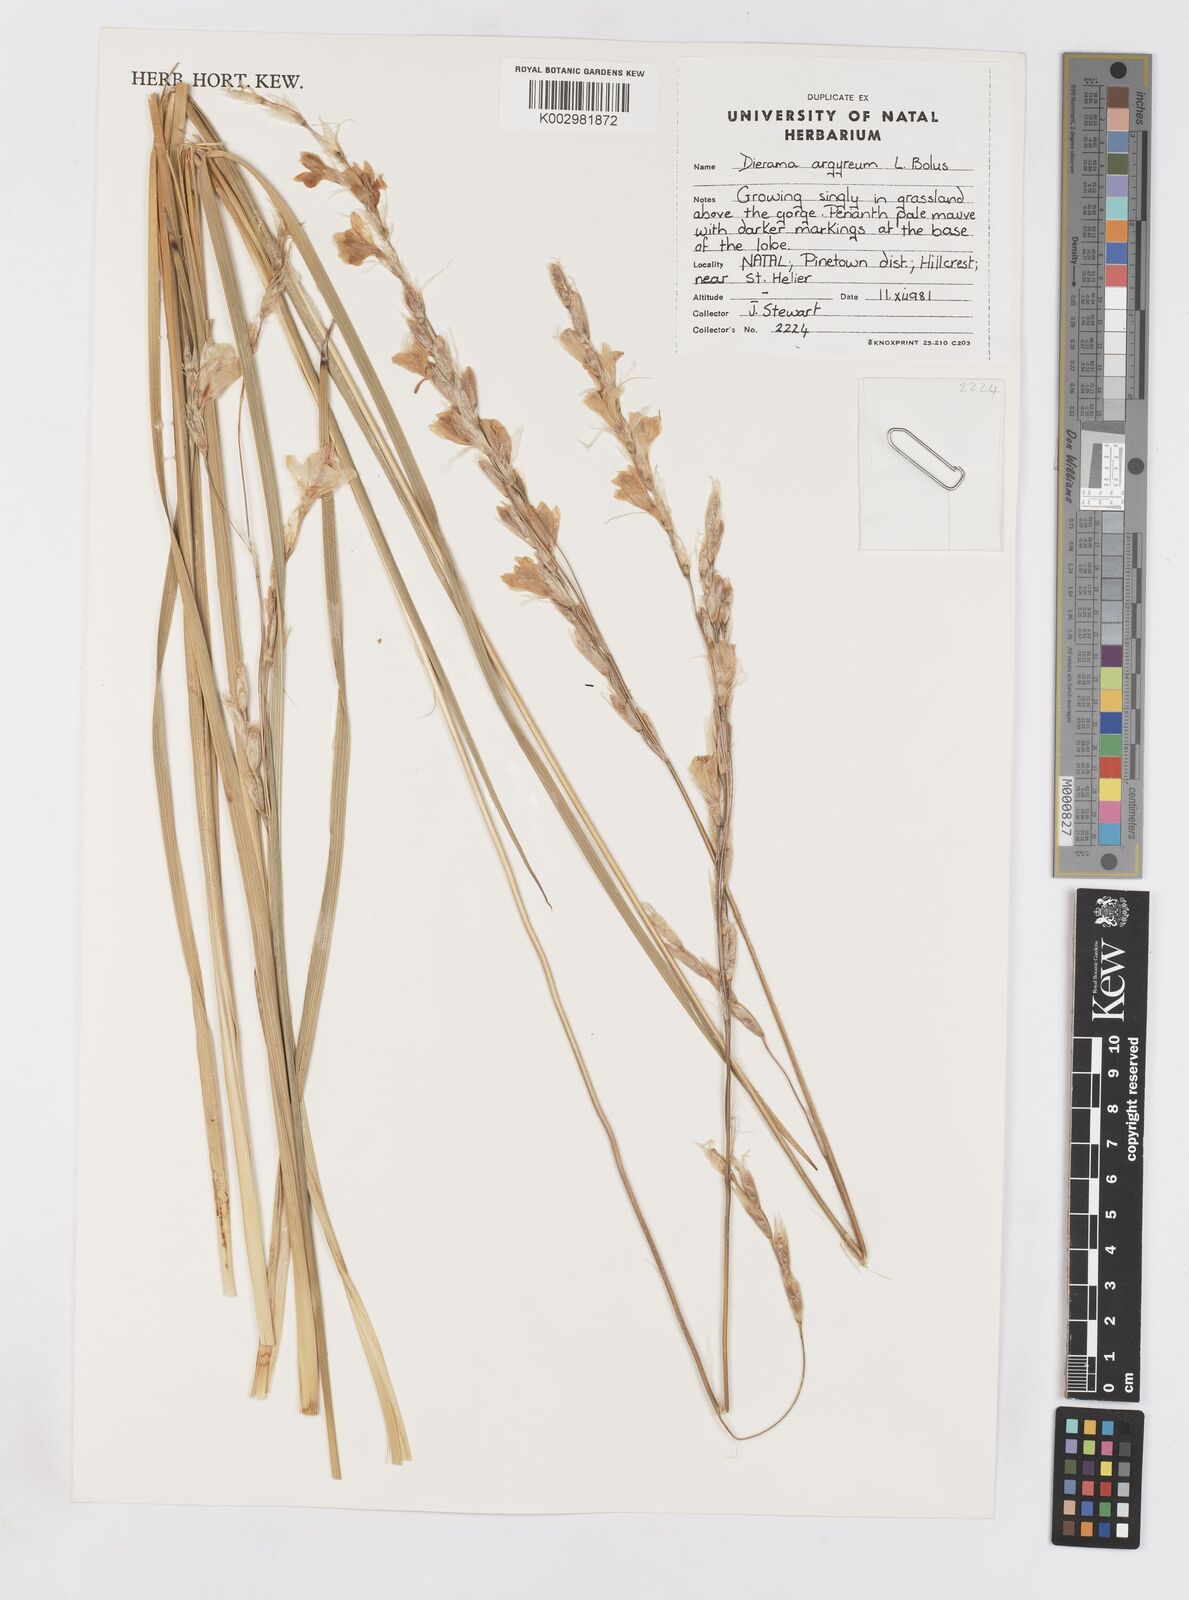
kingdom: Plantae
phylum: Tracheophyta
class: Liliopsida
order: Asparagales
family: Iridaceae
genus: Dierama
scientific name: Dierama argyreum
